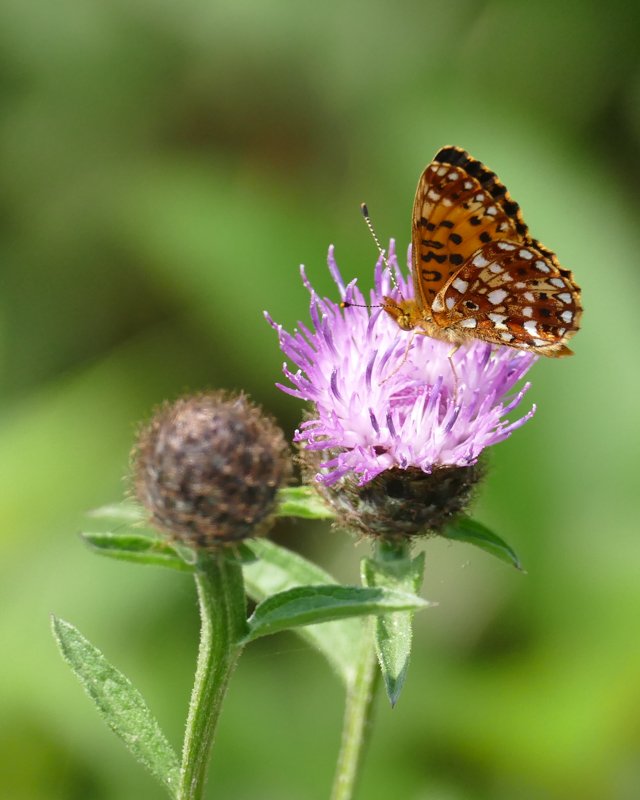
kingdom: Animalia
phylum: Arthropoda
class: Insecta
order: Lepidoptera
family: Nymphalidae
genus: Boloria
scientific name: Boloria selene
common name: Silver-bordered Fritillary
